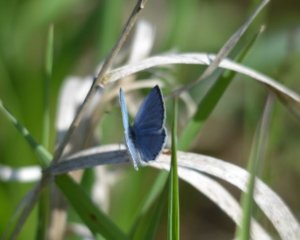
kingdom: Animalia
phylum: Arthropoda
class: Insecta
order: Lepidoptera
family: Lycaenidae
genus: Celastrina
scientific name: Celastrina
